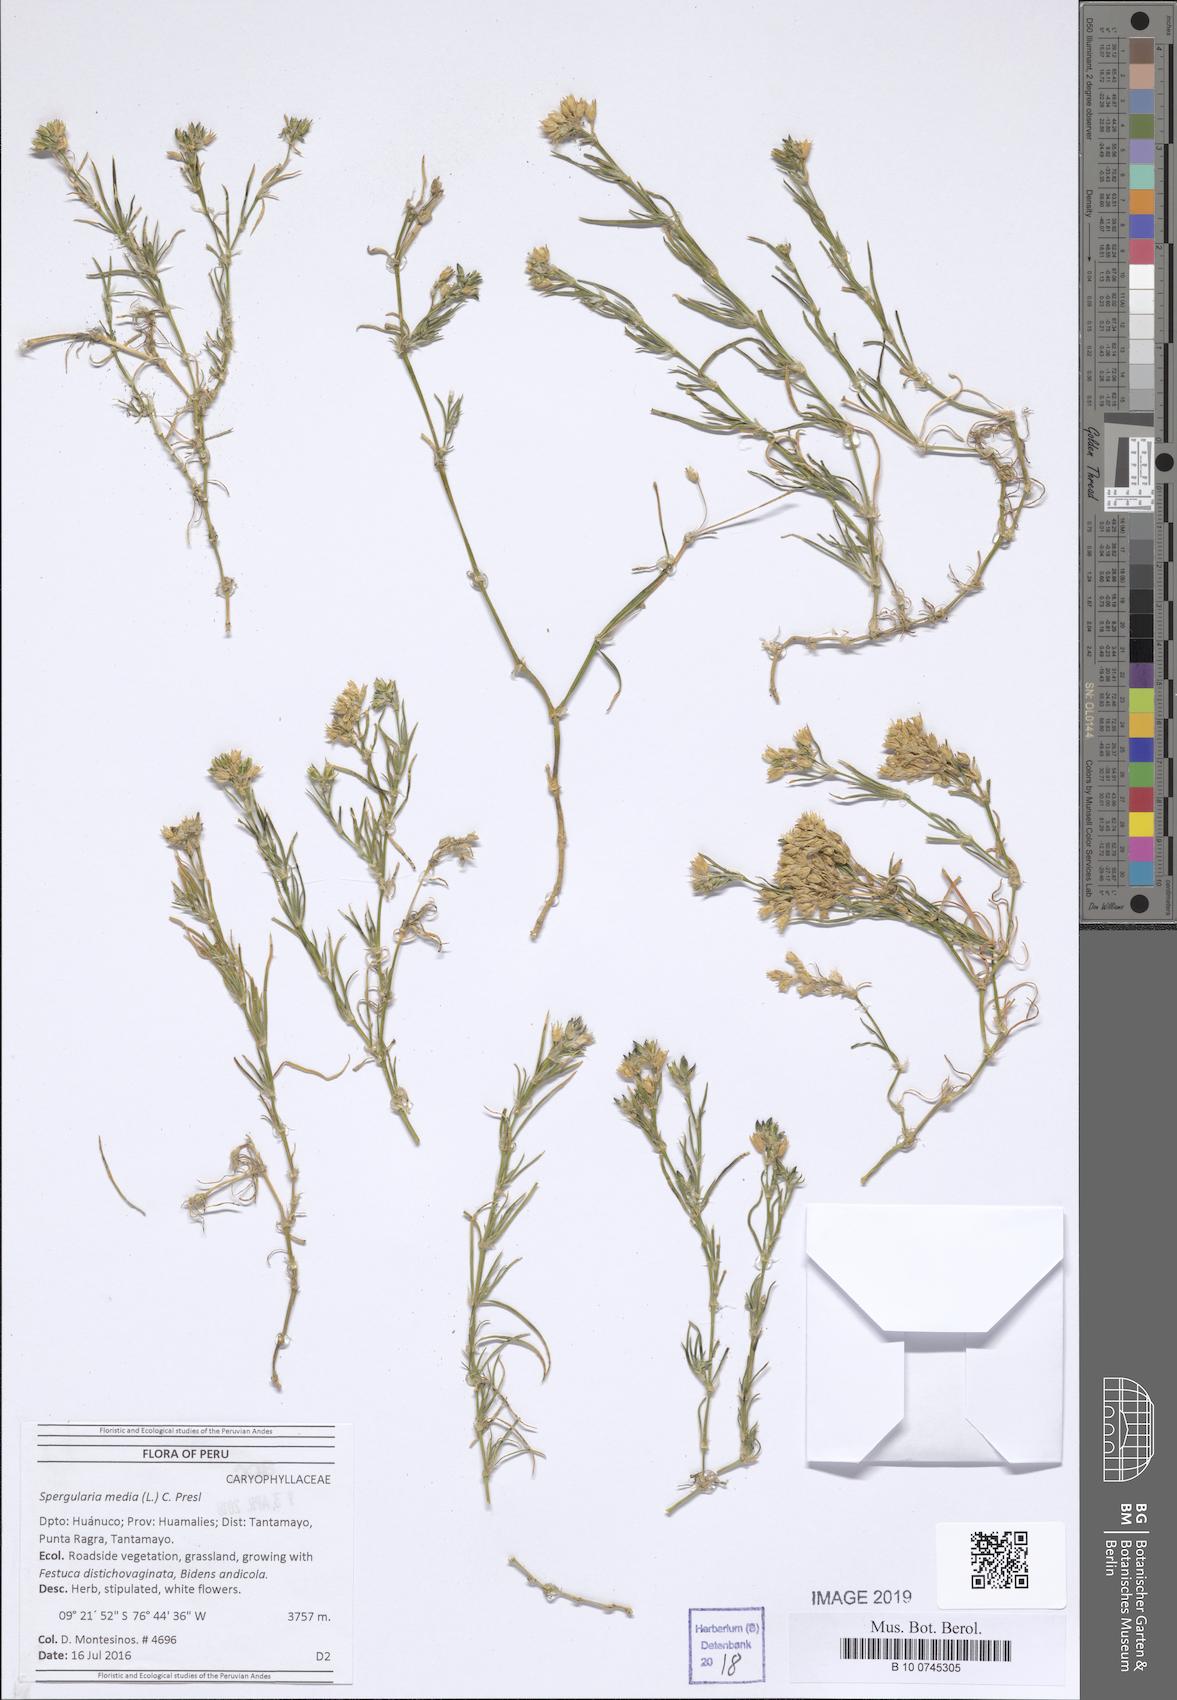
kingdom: Plantae
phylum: Tracheophyta
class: Magnoliopsida
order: Caryophyllales
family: Caryophyllaceae
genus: Spergularia
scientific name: Spergularia media
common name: Greater sea-spurrey
